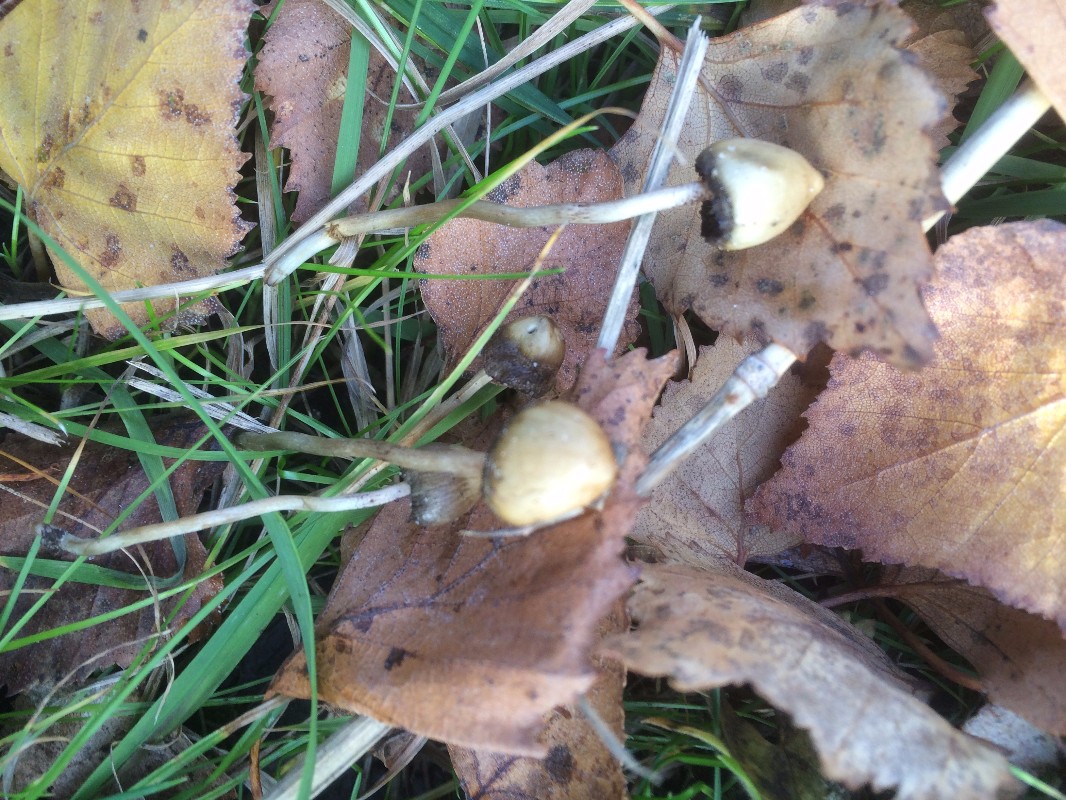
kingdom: Fungi
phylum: Basidiomycota
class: Agaricomycetes
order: Agaricales
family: Hymenogastraceae
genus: Psilocybe
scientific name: Psilocybe semilanceata
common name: spids nøgenhat
